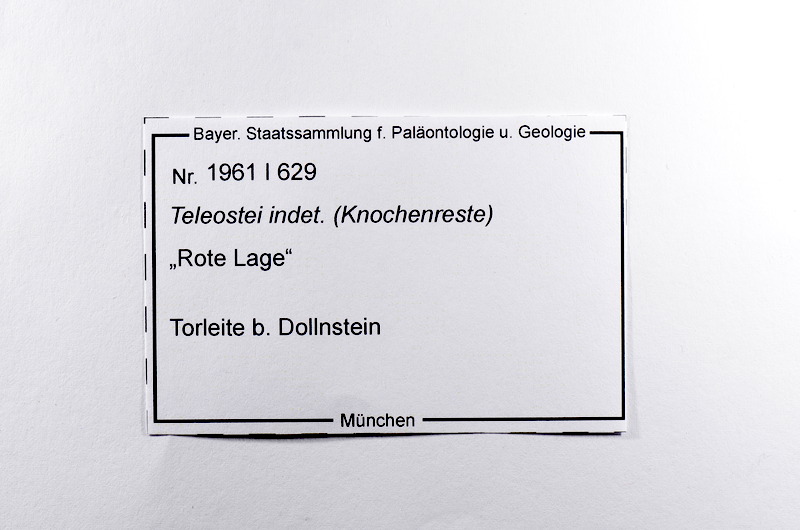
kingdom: Animalia
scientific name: Animalia
